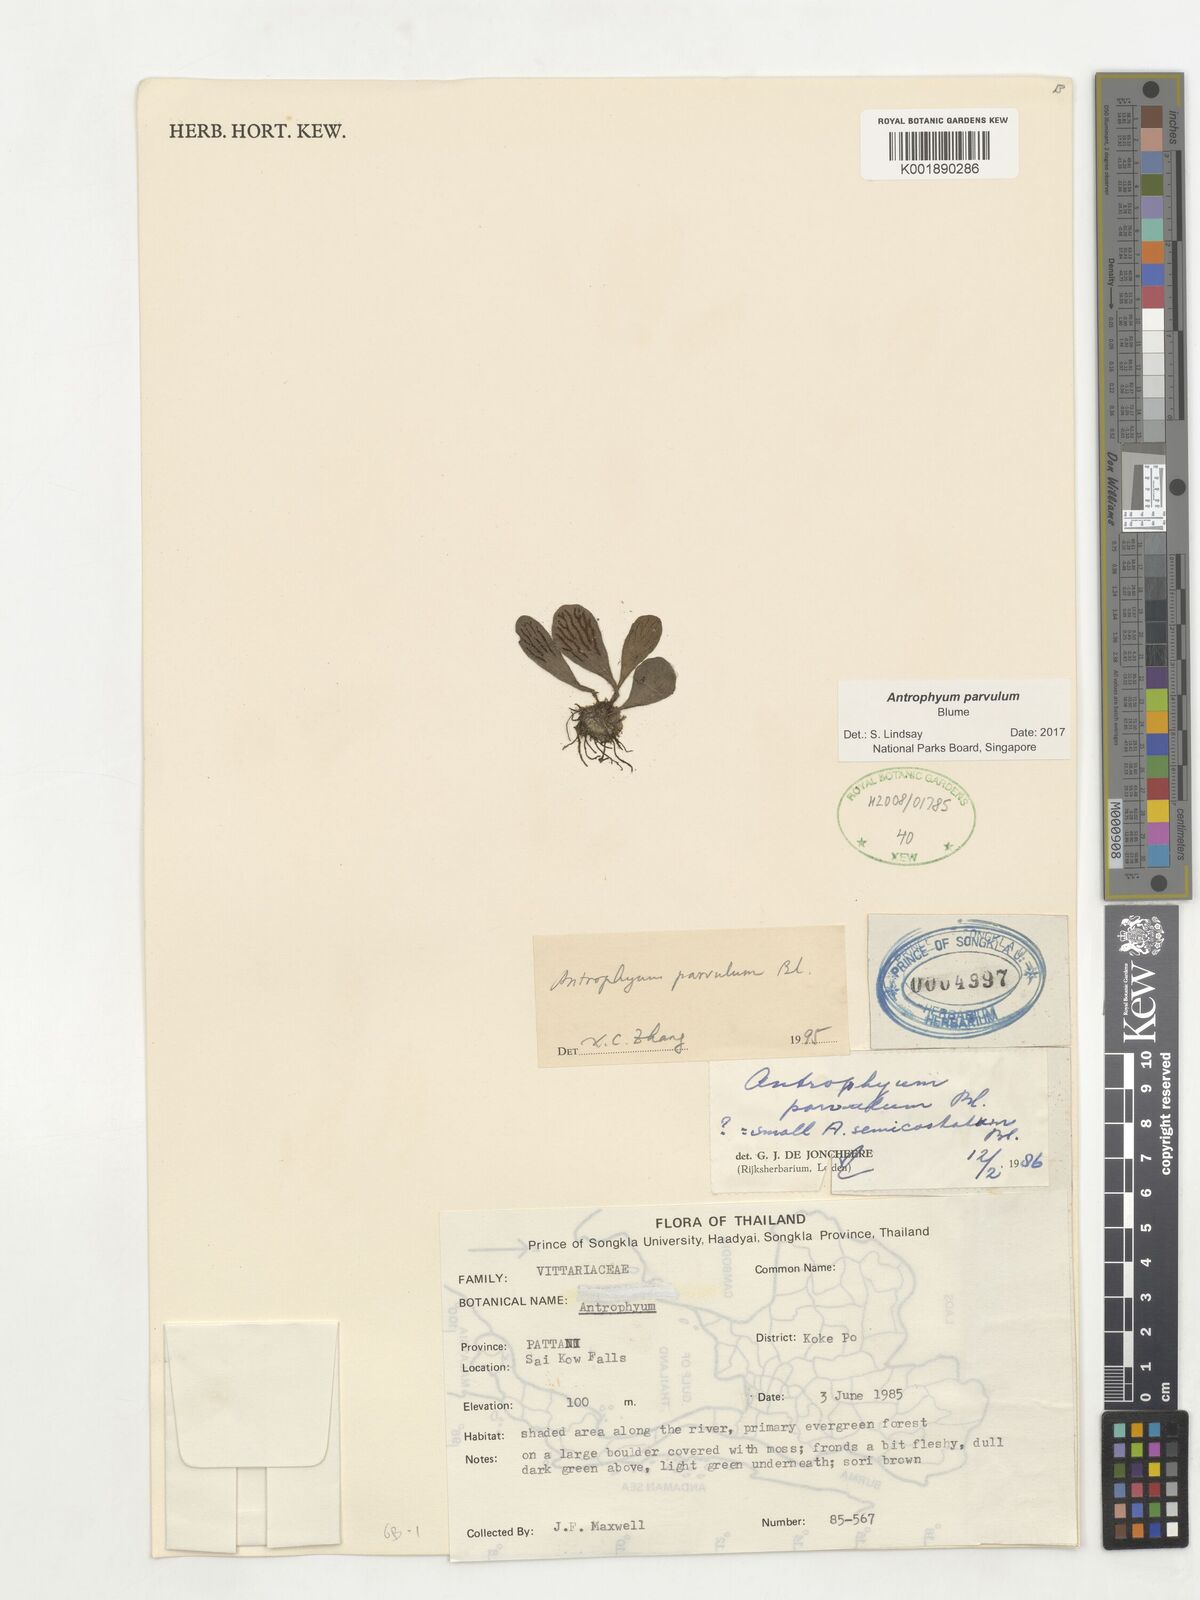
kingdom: Plantae
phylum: Tracheophyta
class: Polypodiopsida
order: Polypodiales
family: Pteridaceae
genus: Antrophyum
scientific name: Antrophyum parvulum
